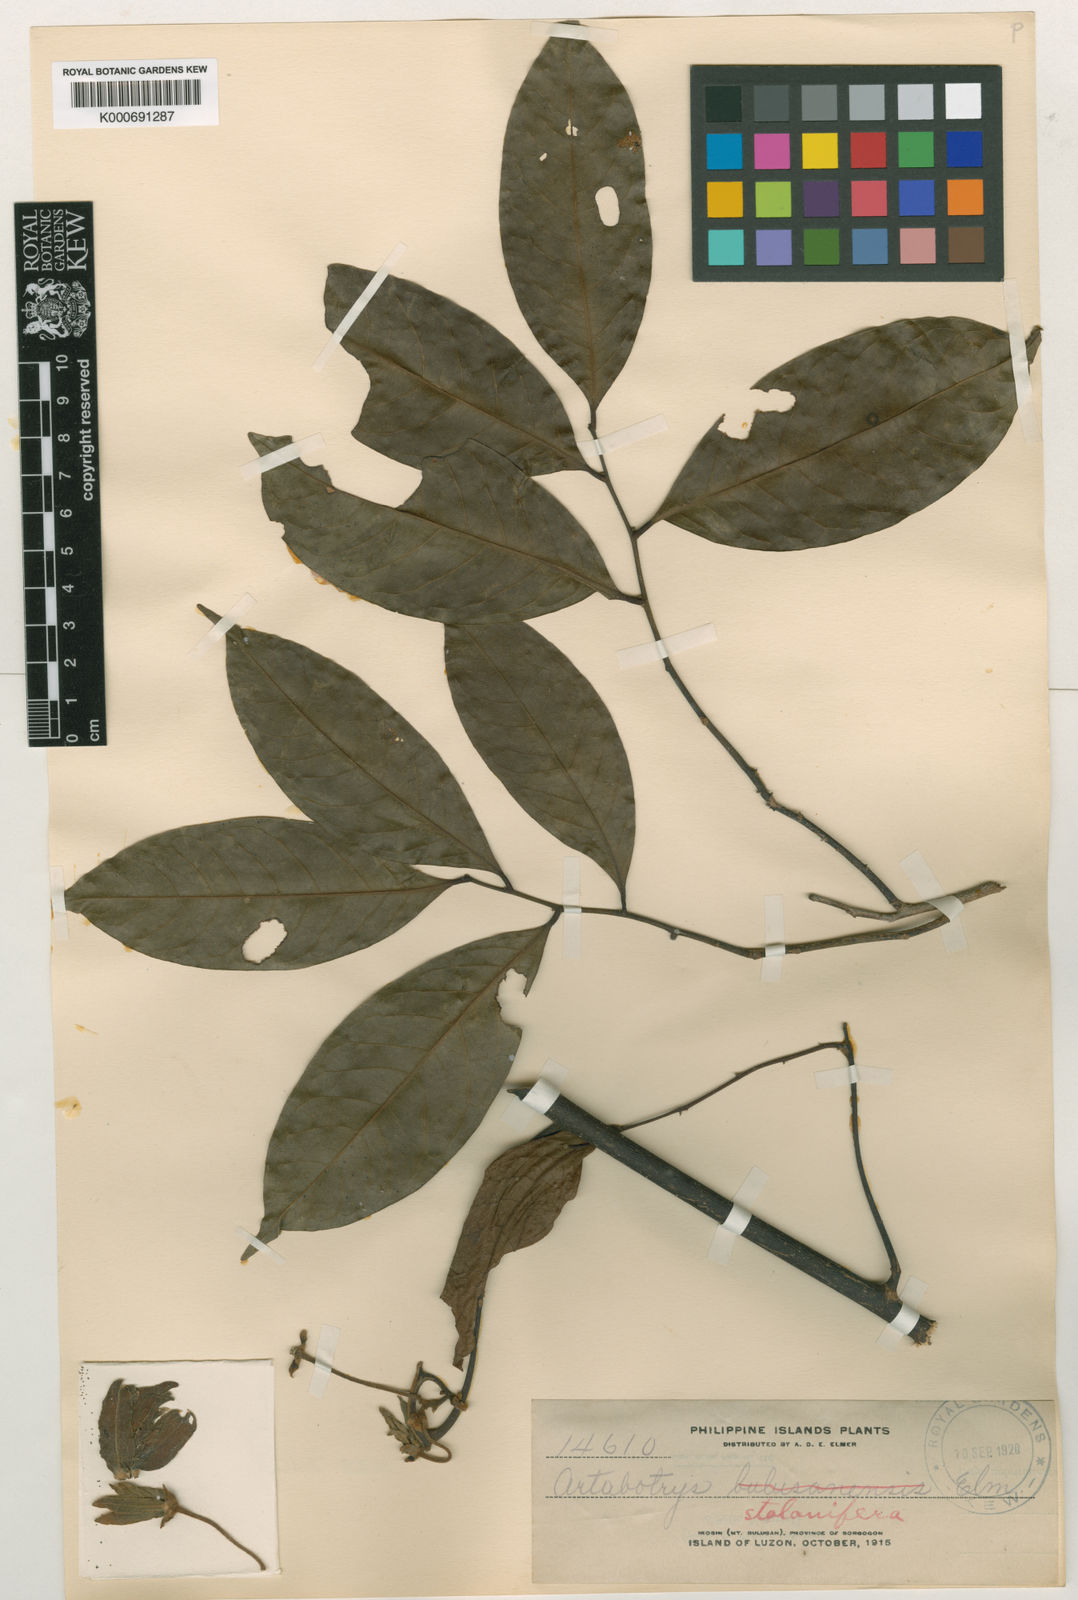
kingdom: Plantae
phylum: Tracheophyta
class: Magnoliopsida
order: Magnoliales
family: Annonaceae
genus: Artabotrys
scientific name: Artabotrys
